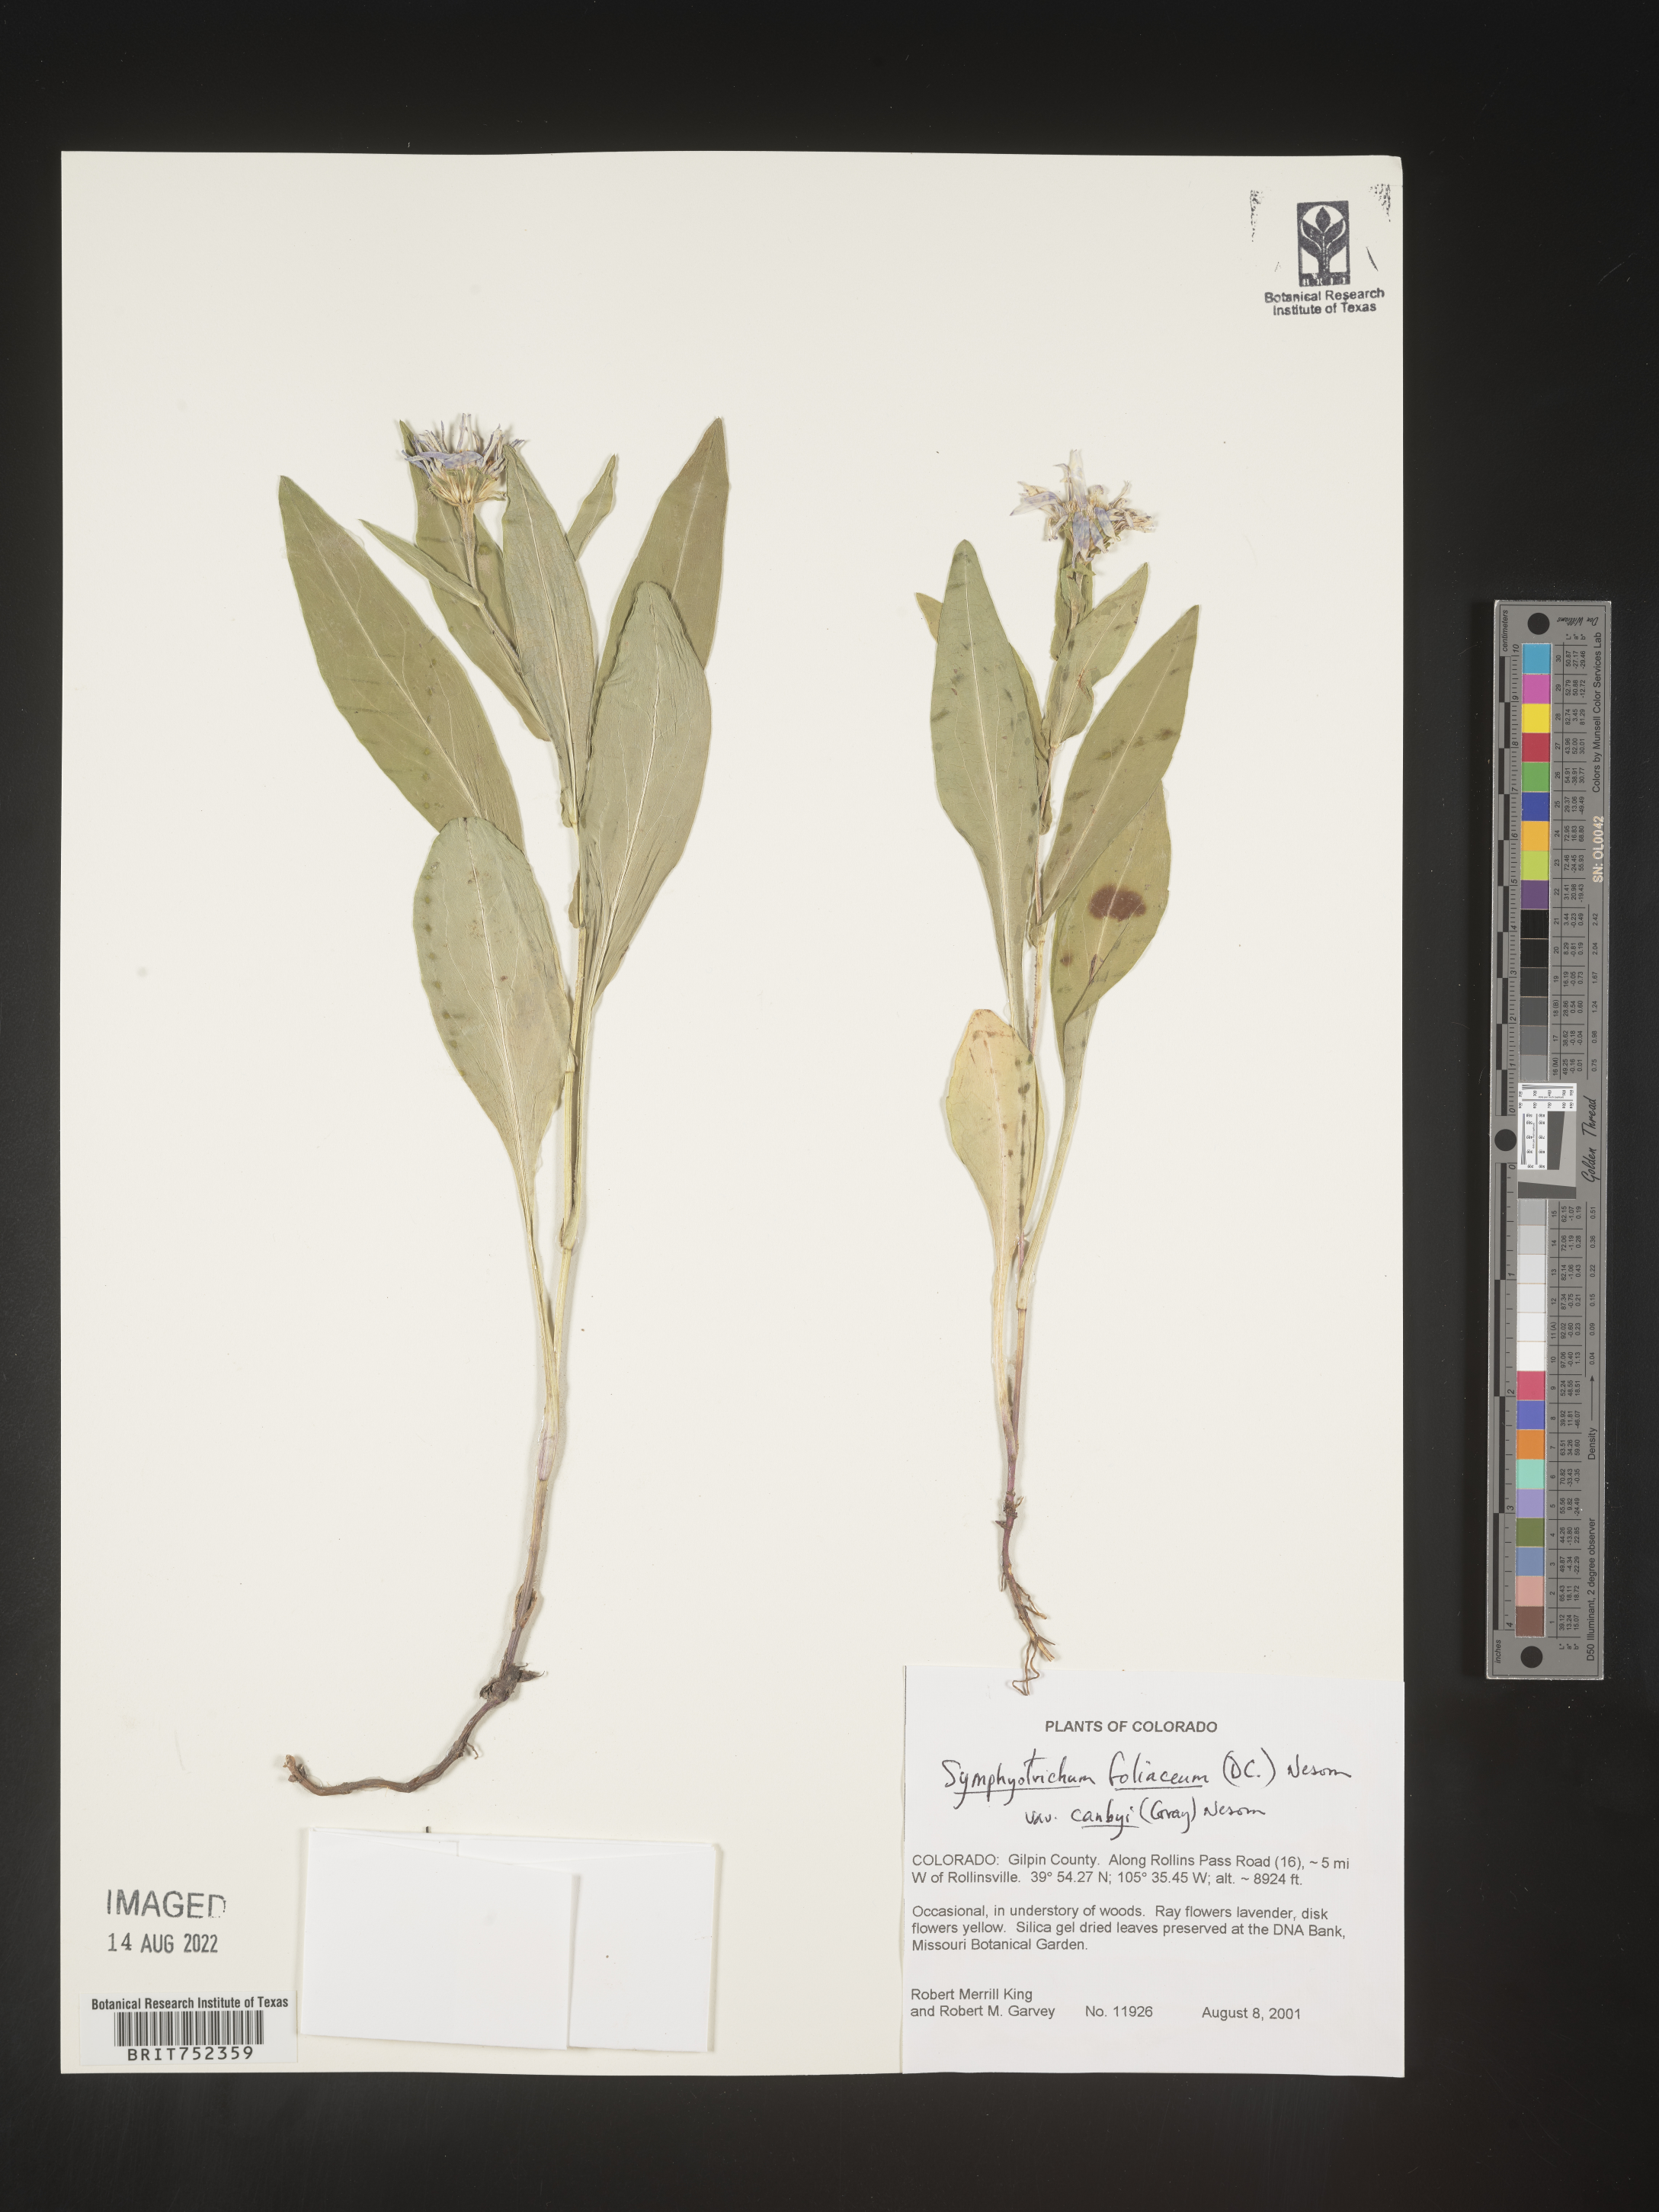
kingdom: Plantae
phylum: Tracheophyta
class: Magnoliopsida
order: Asterales
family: Asteraceae
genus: Symphyotrichum
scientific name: Symphyotrichum foliaceum
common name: Leafy aster
